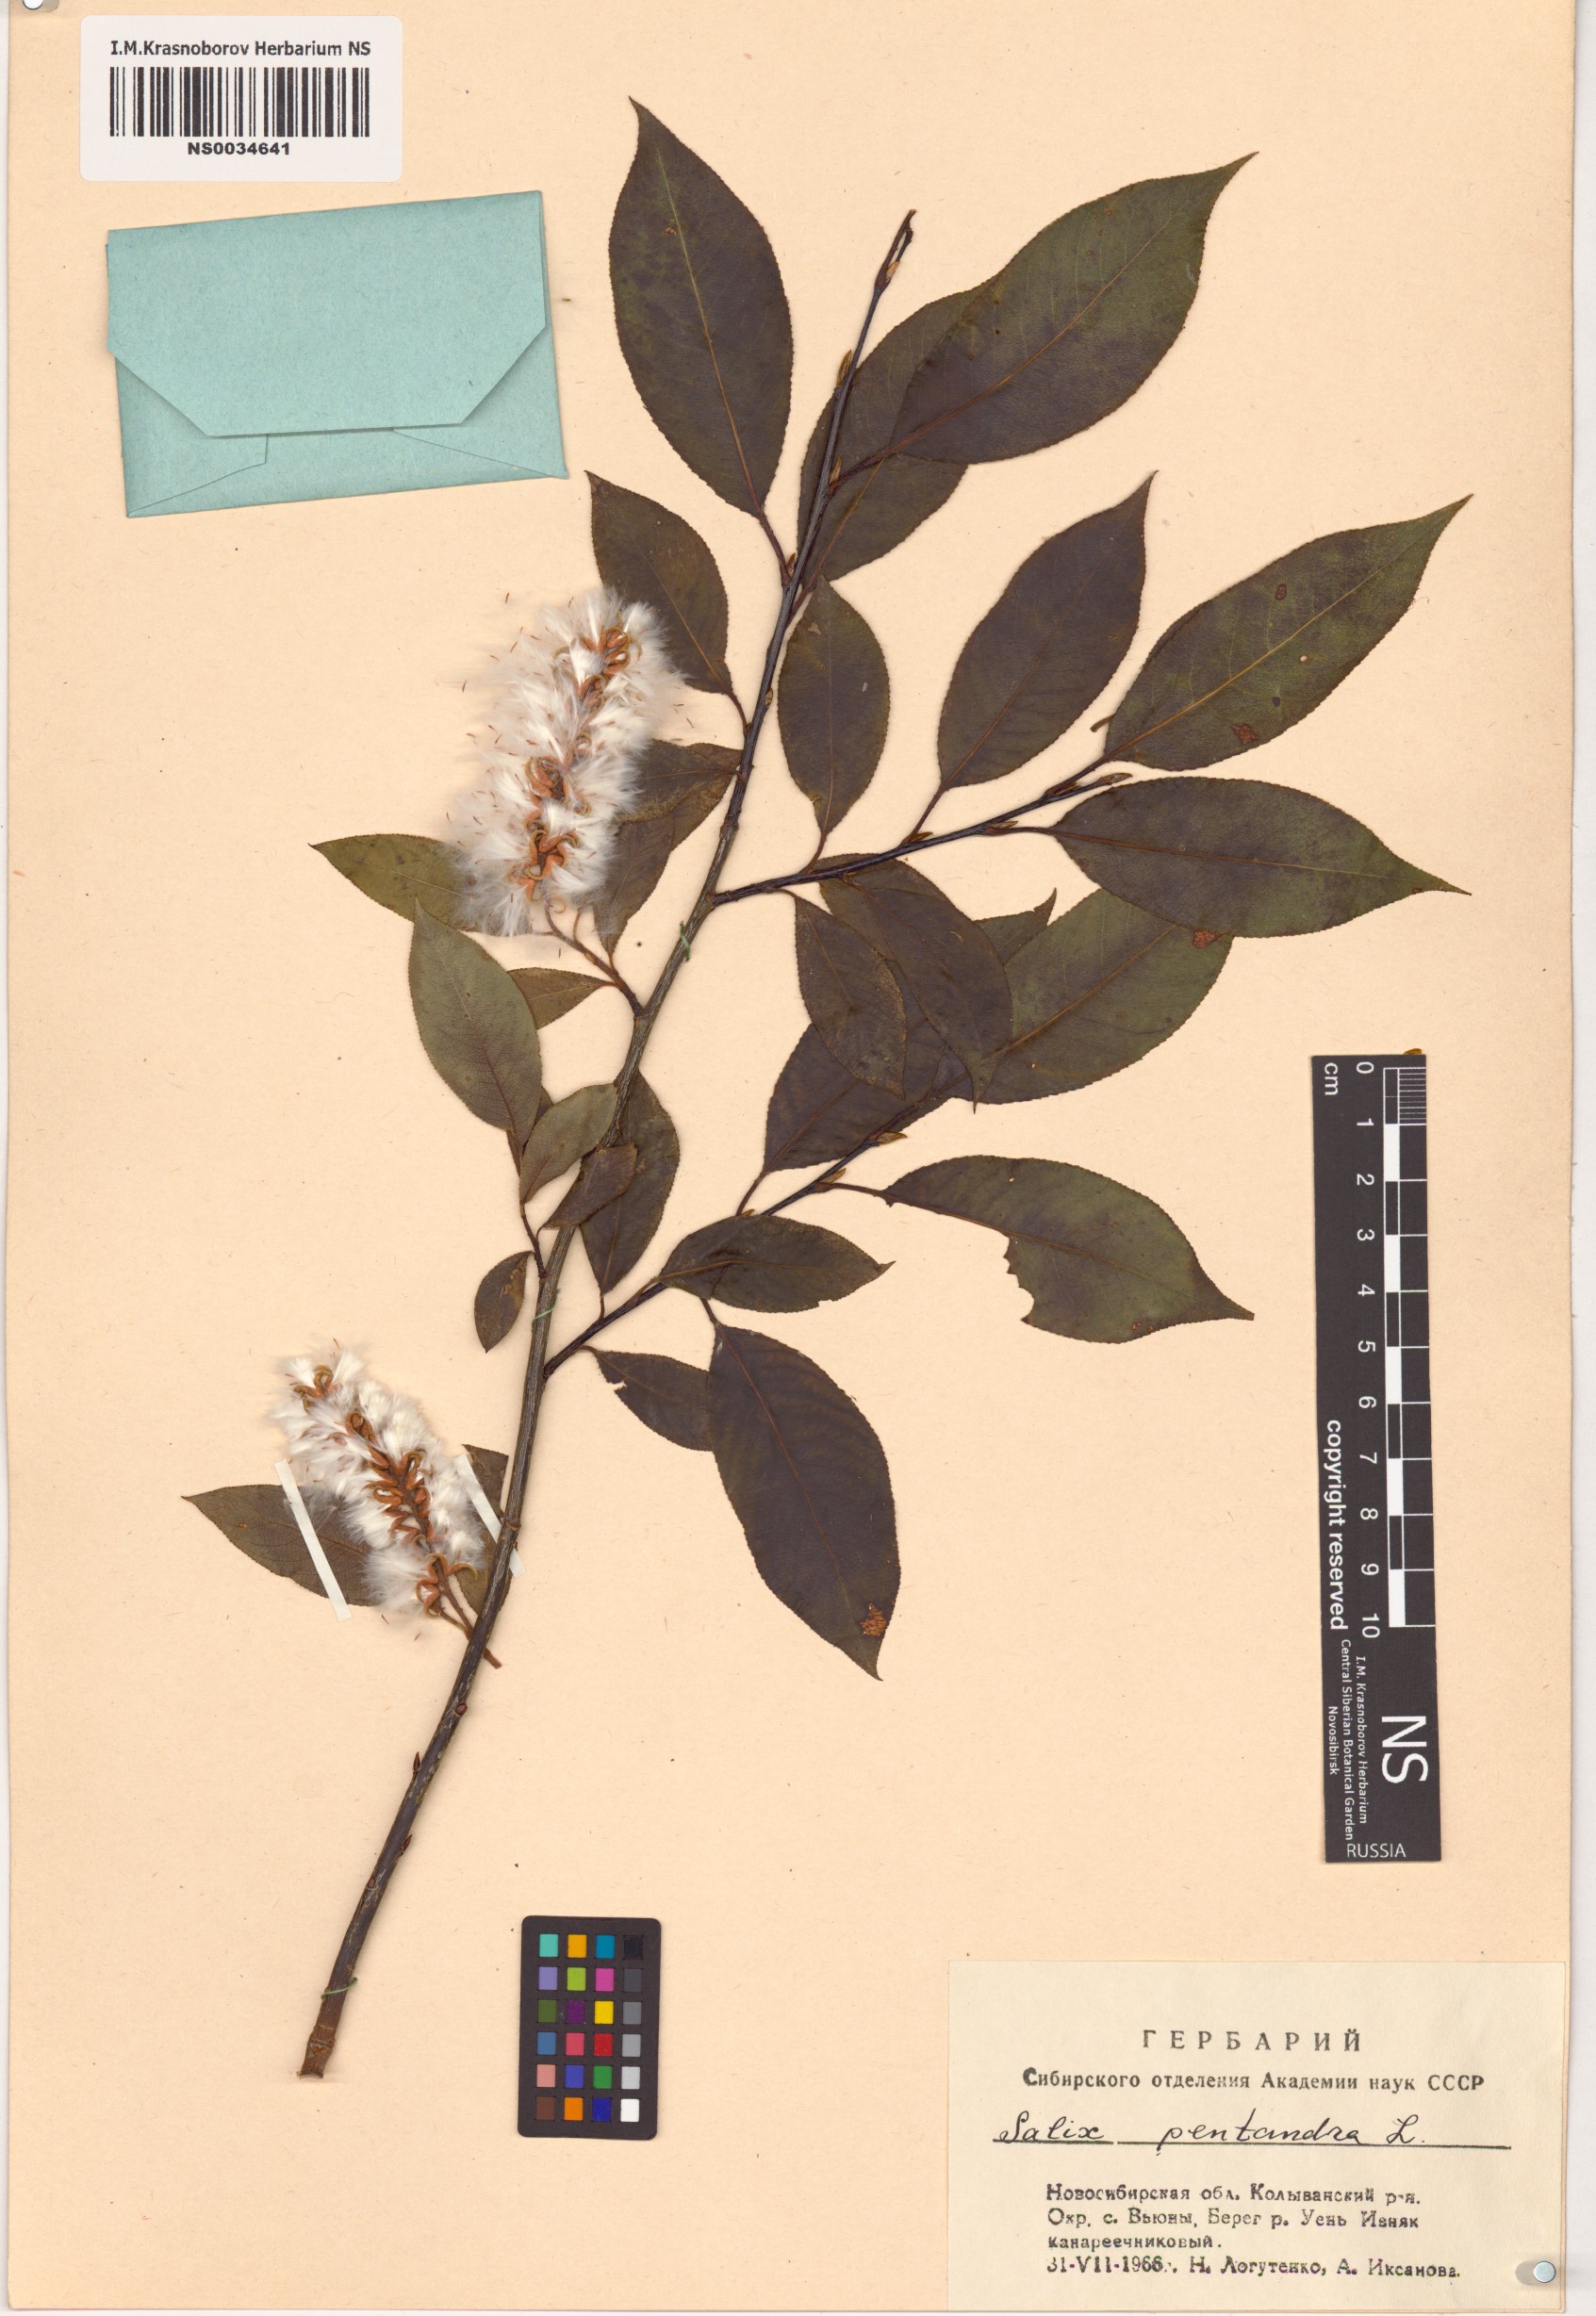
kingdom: Plantae
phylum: Tracheophyta
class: Magnoliopsida
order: Malpighiales
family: Salicaceae
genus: Salix
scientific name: Salix pentandra
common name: Bay willow
